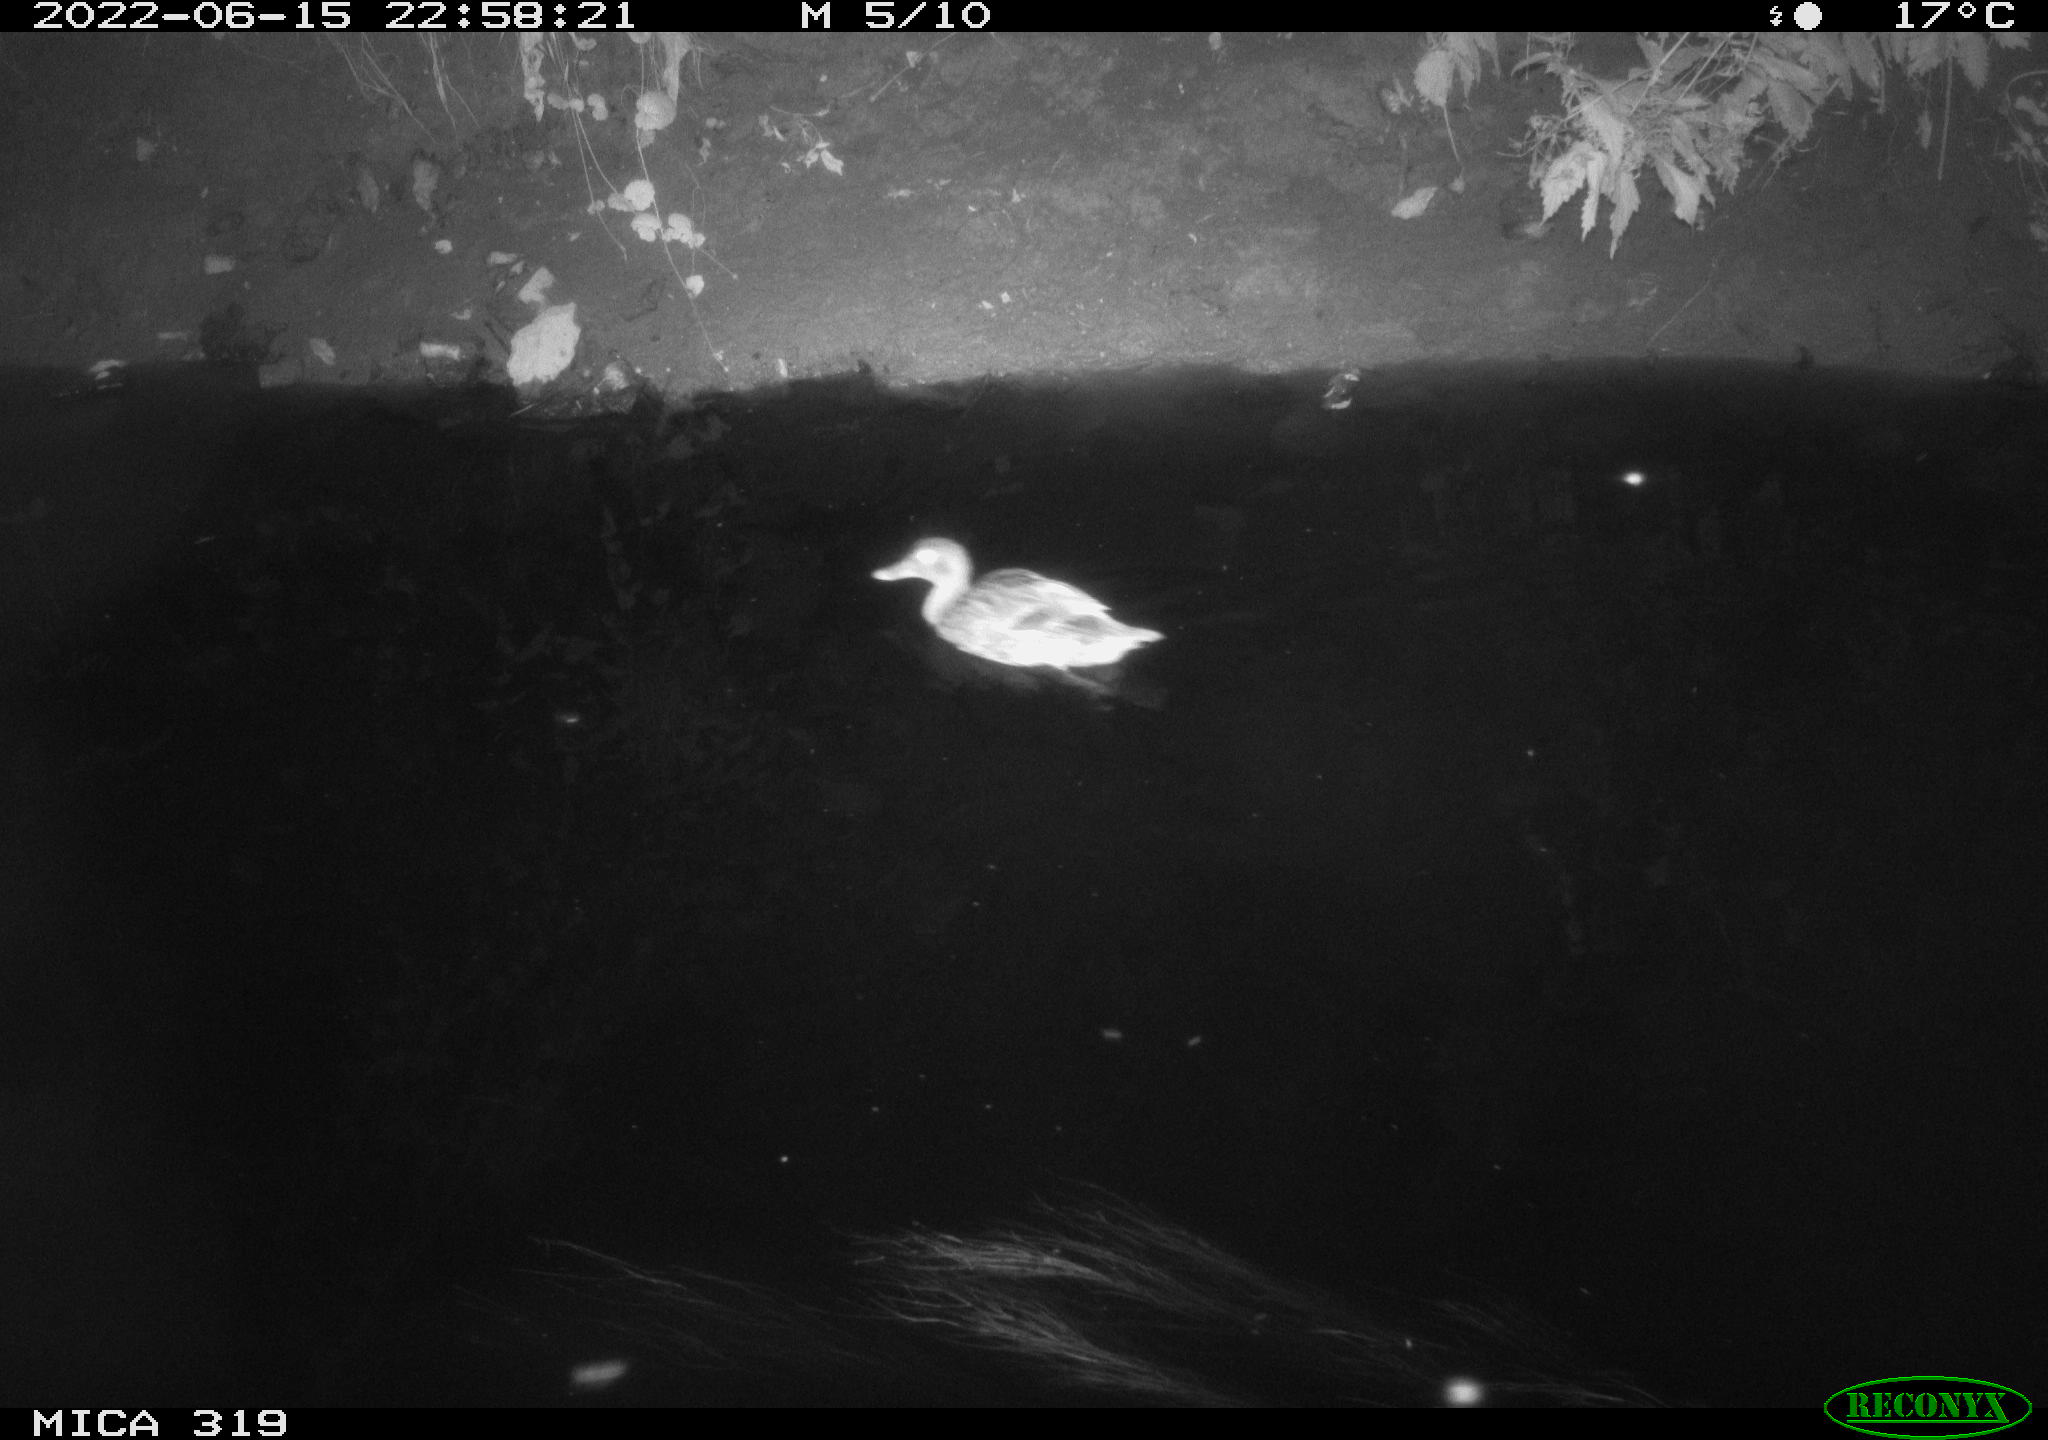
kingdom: Animalia
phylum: Chordata
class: Aves
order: Anseriformes
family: Anatidae
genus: Anas
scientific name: Anas
